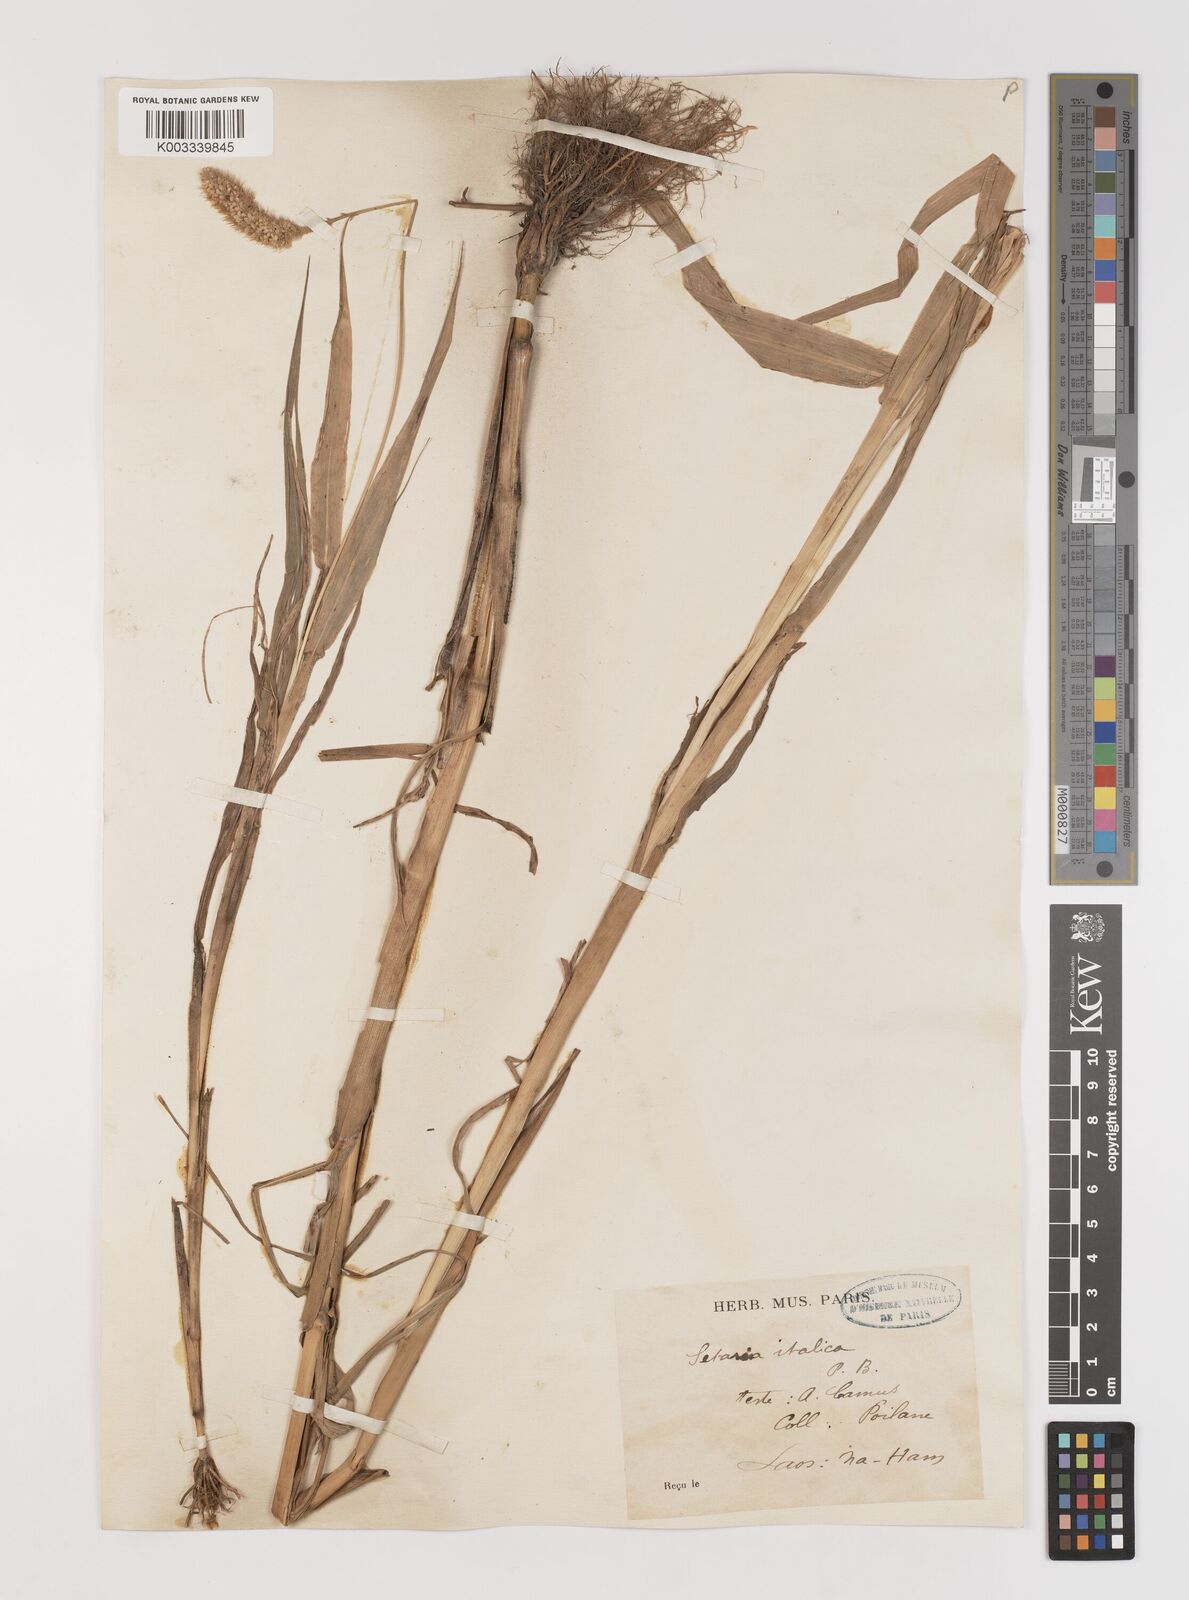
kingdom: Plantae
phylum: Tracheophyta
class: Liliopsida
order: Poales
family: Poaceae
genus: Setaria
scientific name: Setaria italica
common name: Foxtail bristle-grass
